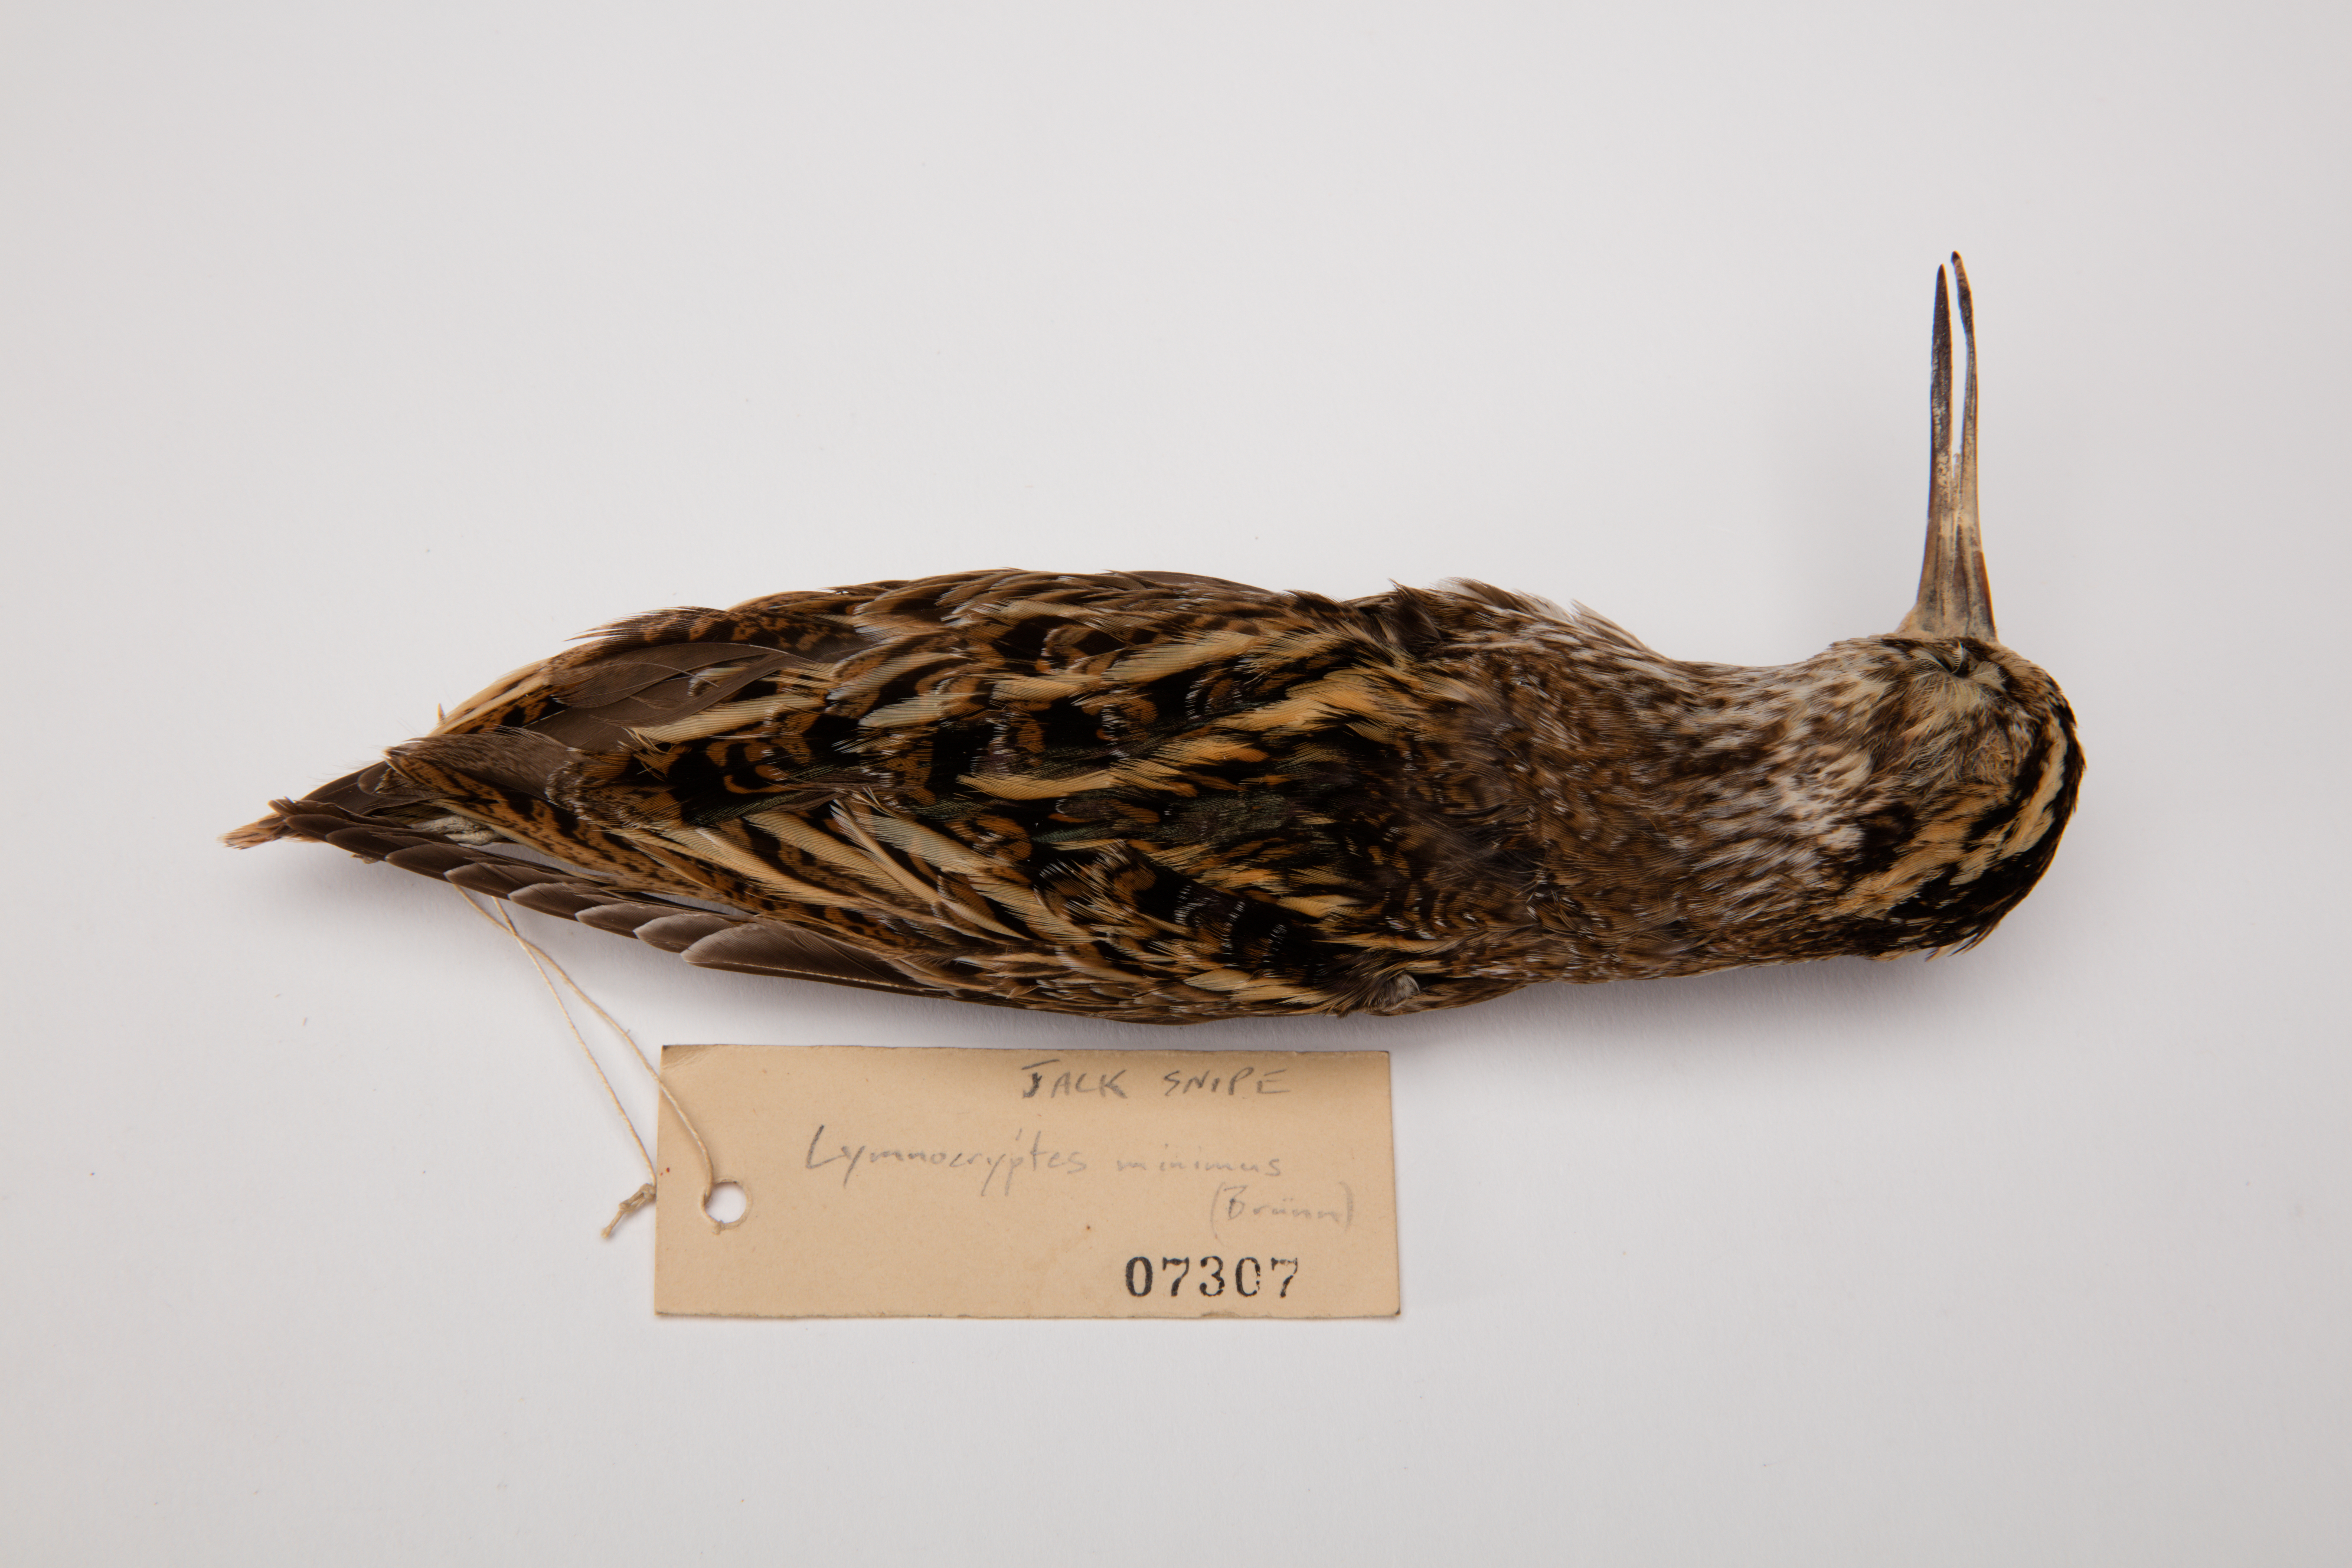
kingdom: Animalia
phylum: Chordata
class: Aves
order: Charadriiformes
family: Scolopacidae
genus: Lymnocryptes
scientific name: Lymnocryptes minimus
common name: Jack snipe
